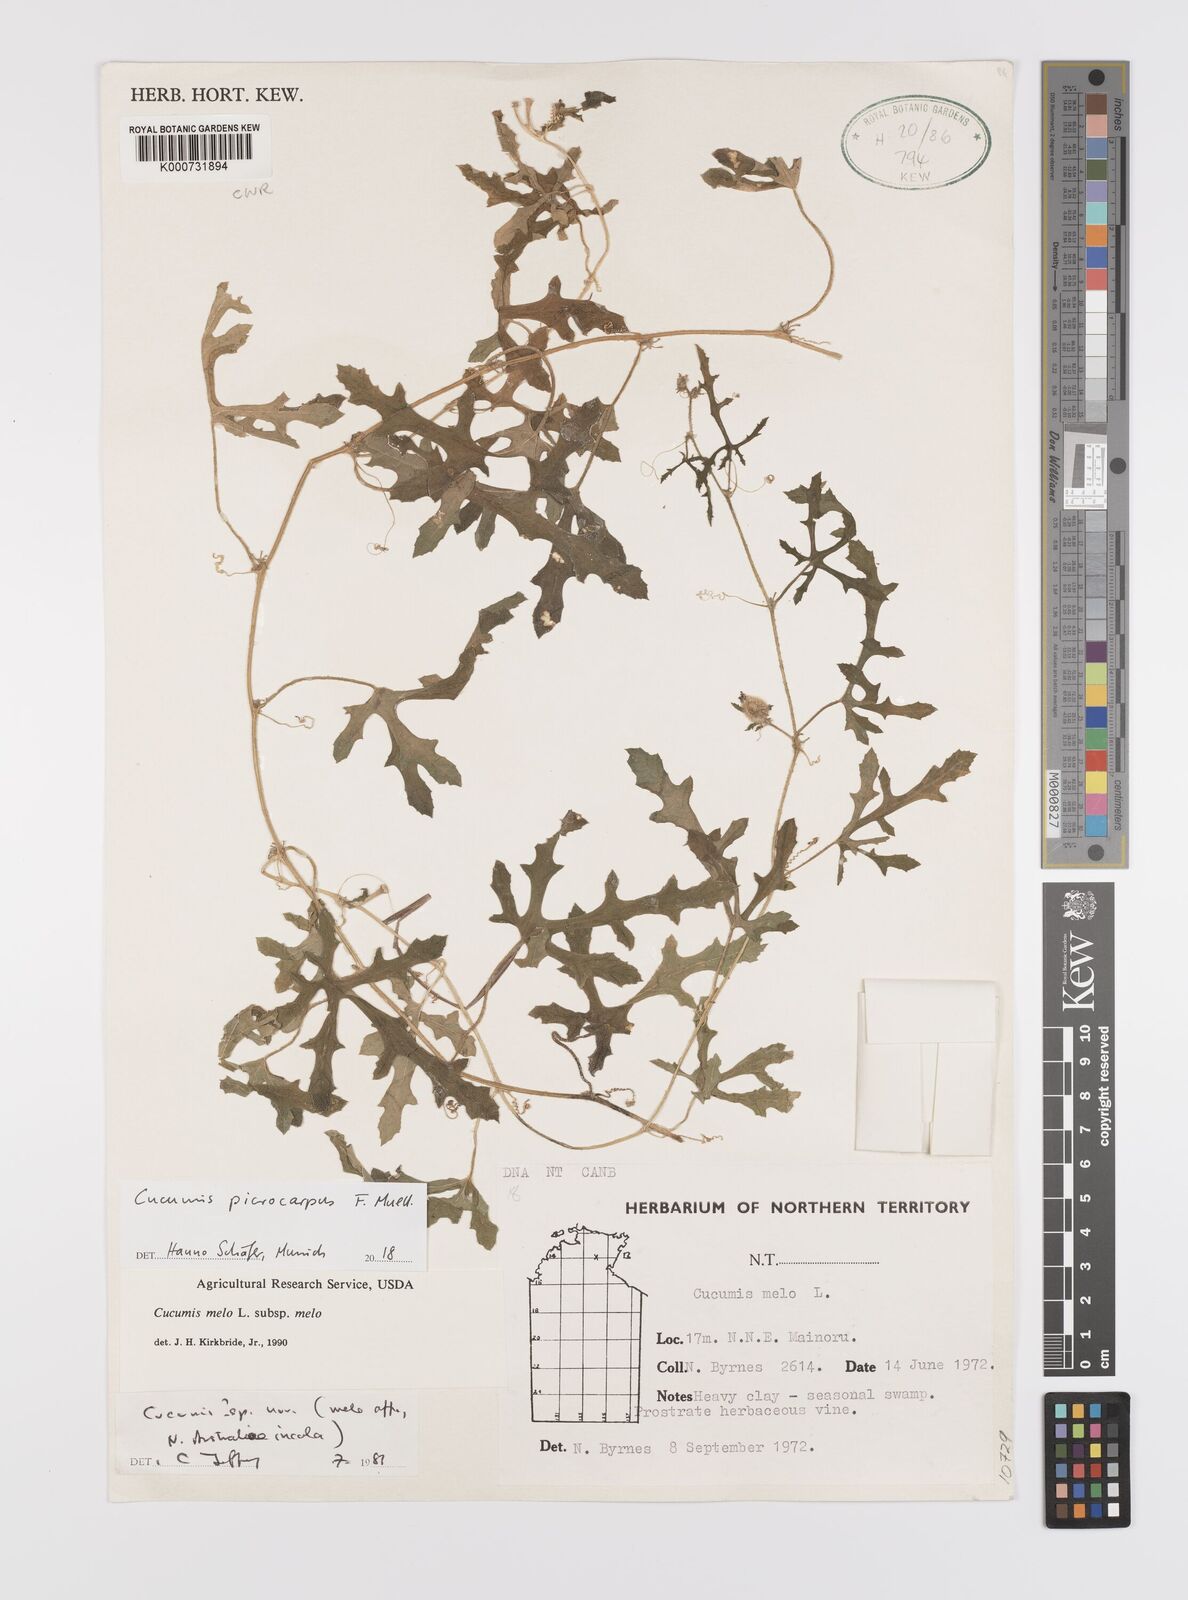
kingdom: Plantae
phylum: Tracheophyta
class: Magnoliopsida
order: Cucurbitales
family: Cucurbitaceae
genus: Cucumis
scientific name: Cucumis melo
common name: Melon
